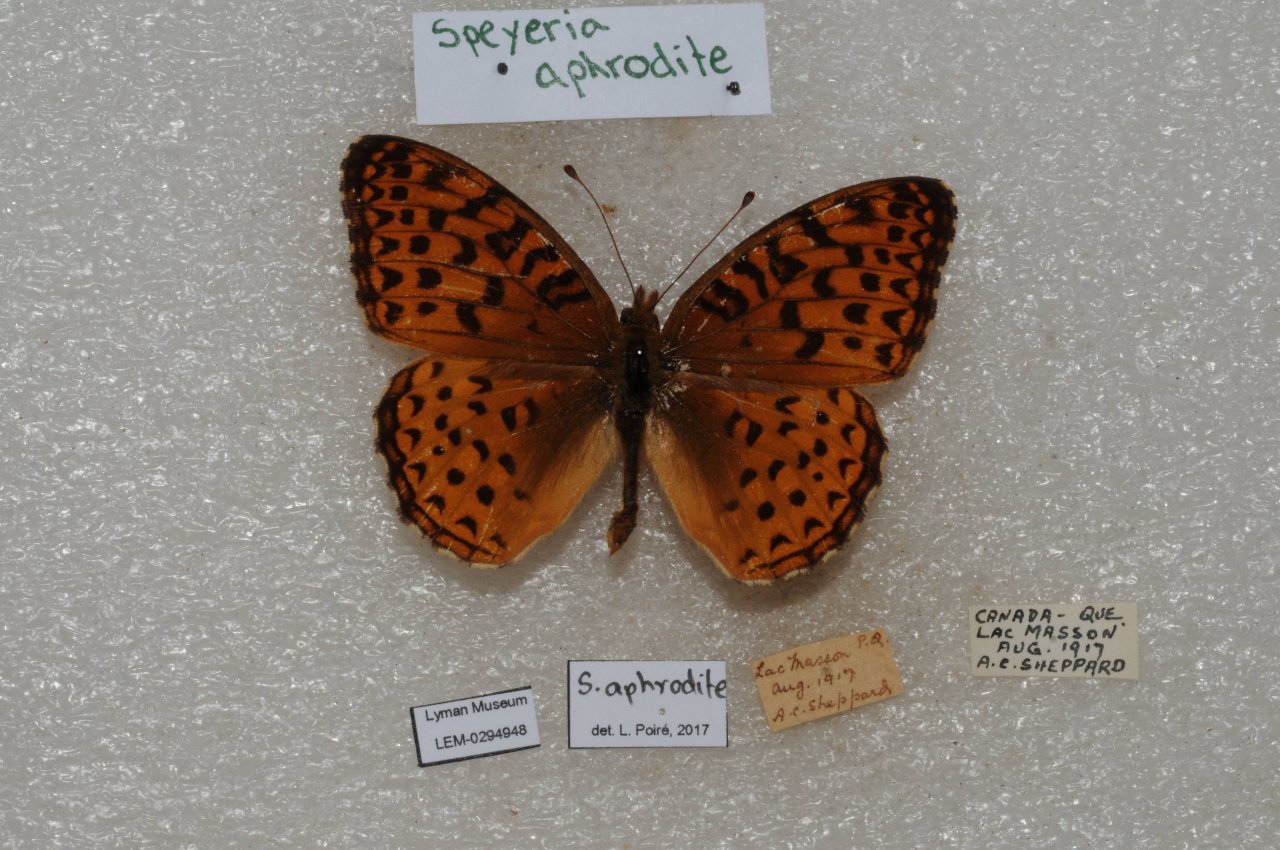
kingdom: Animalia
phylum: Arthropoda
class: Insecta
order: Lepidoptera
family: Nymphalidae
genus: Speyeria
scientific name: Speyeria aphrodite
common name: Aphrodite Fritillary
